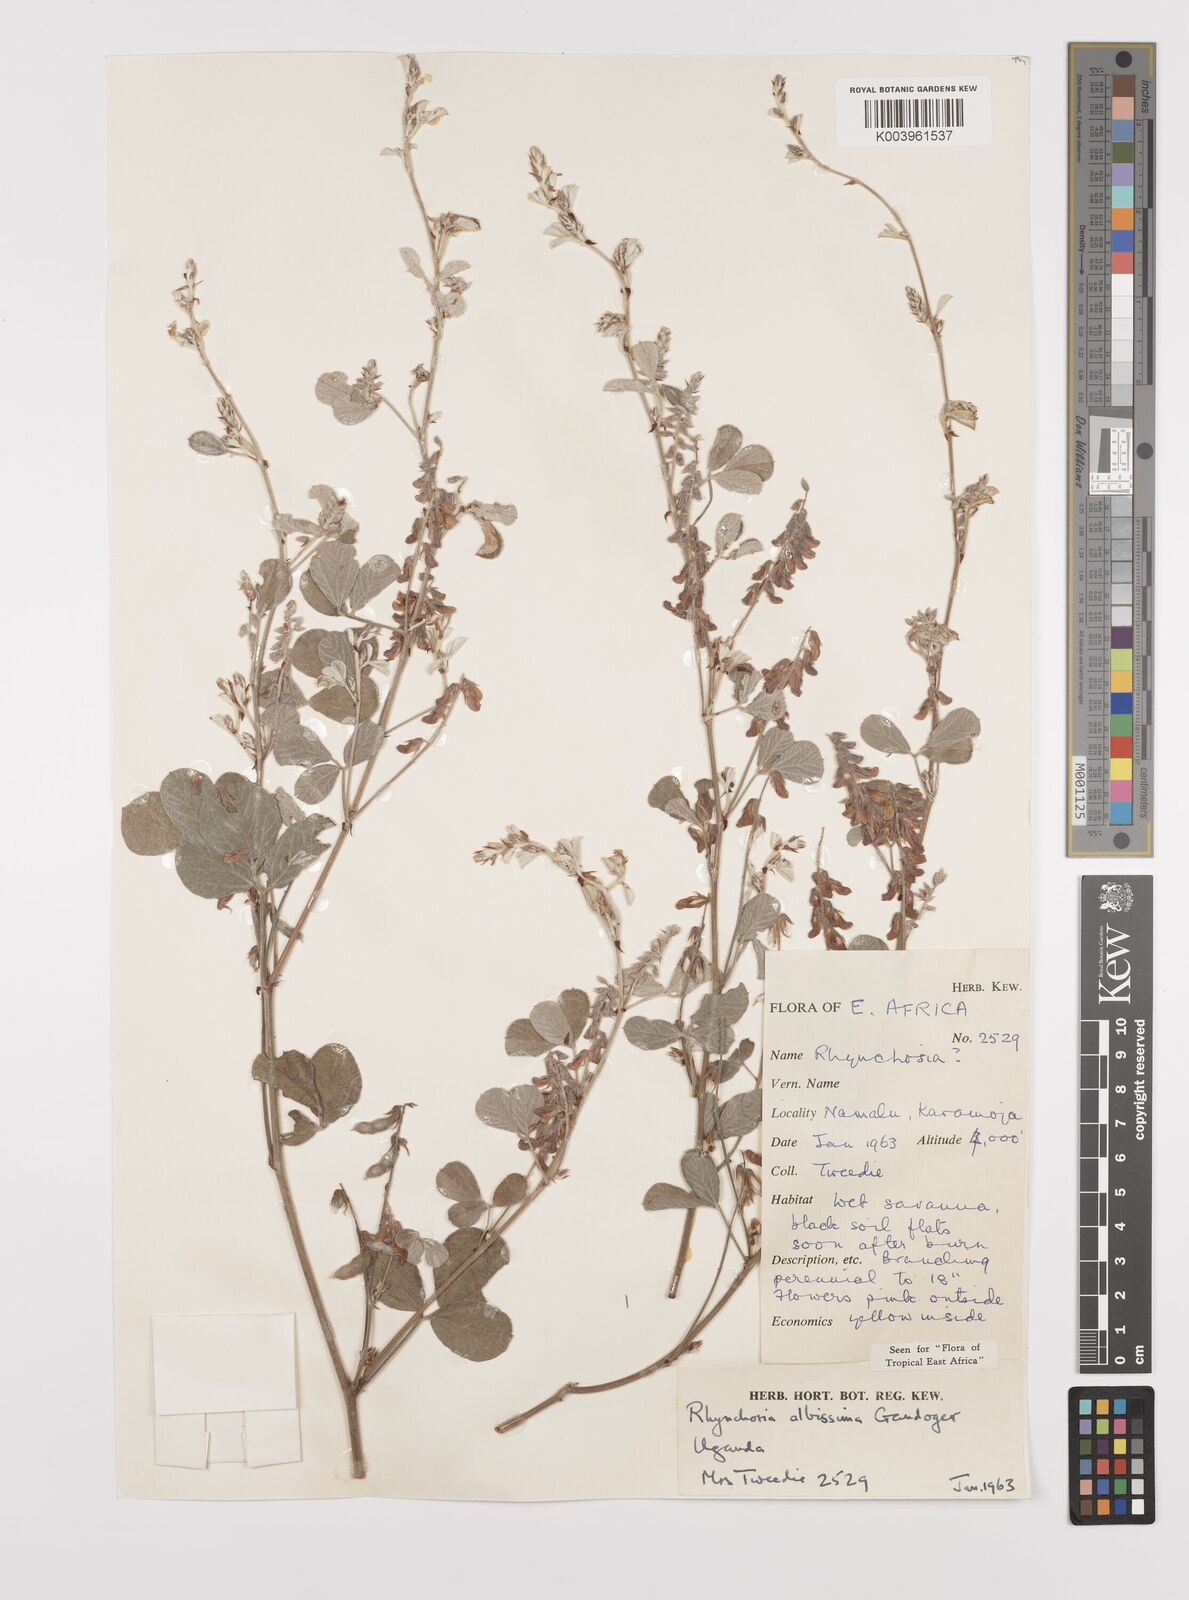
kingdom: Plantae
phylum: Tracheophyta
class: Magnoliopsida
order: Fabales
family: Fabaceae
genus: Rhynchosia
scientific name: Rhynchosia albissima
